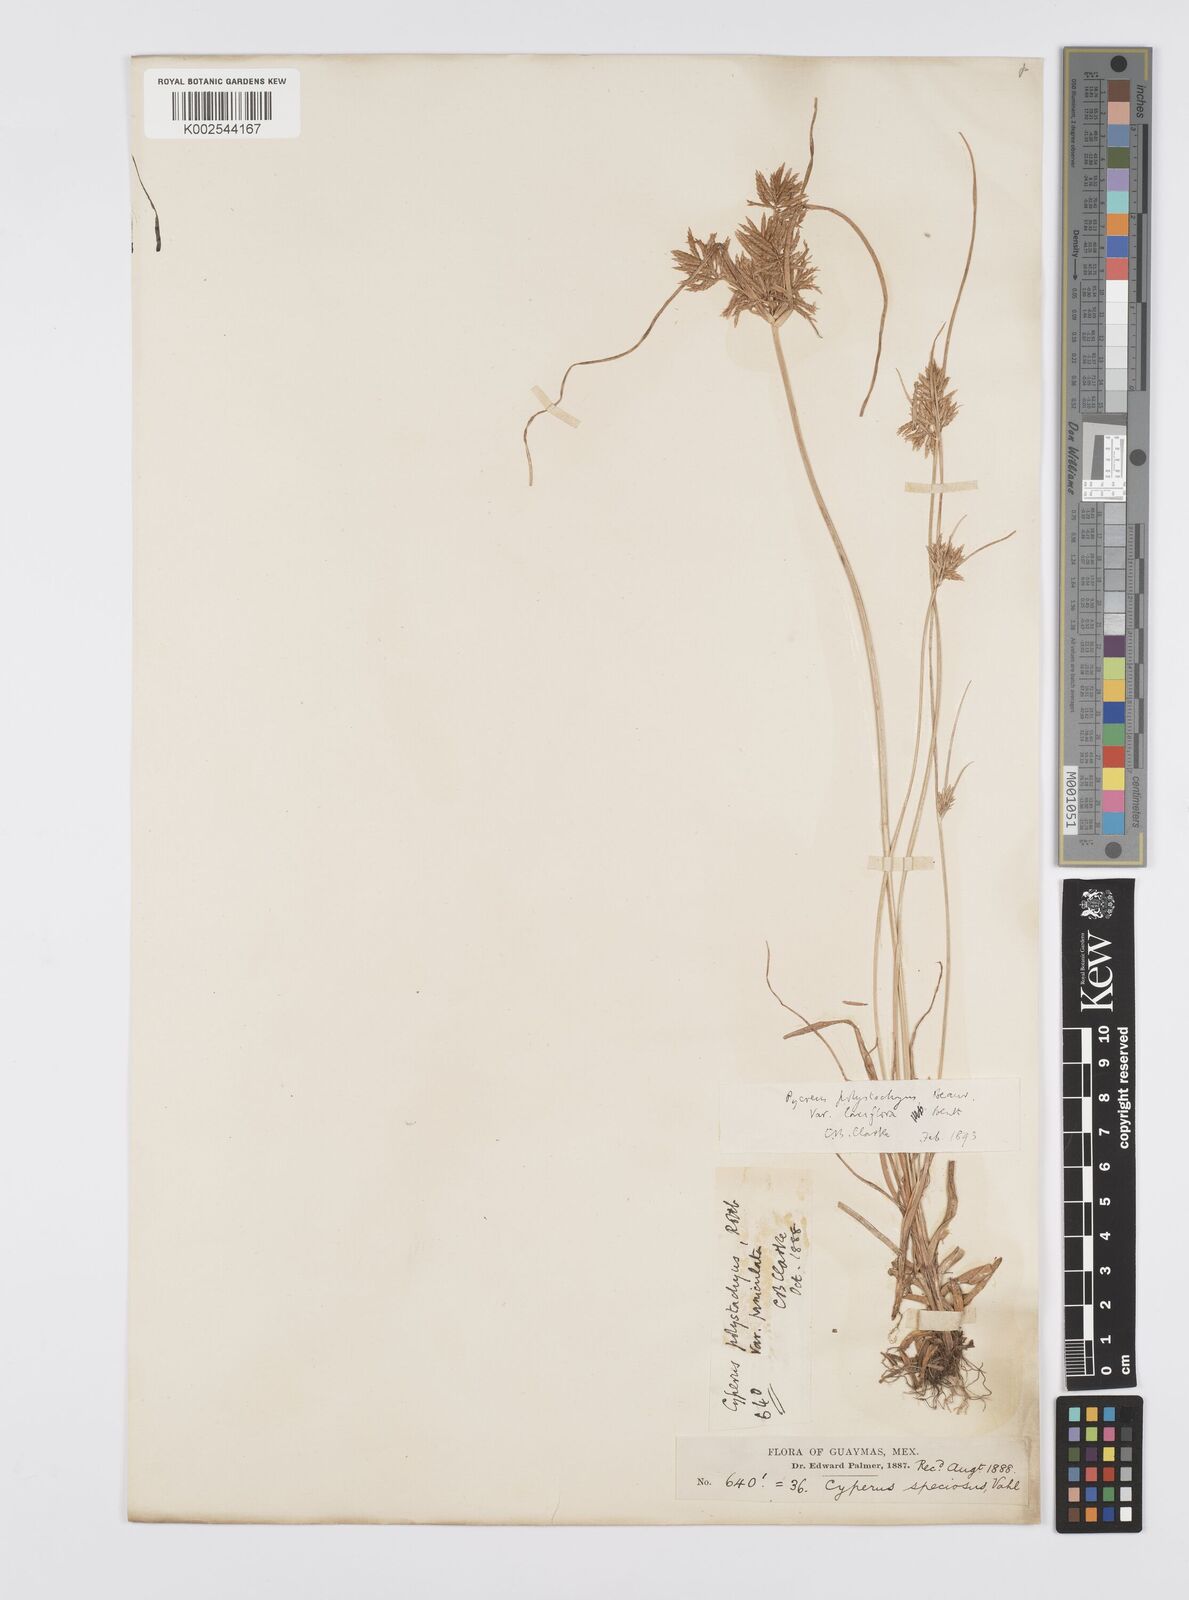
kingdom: Plantae
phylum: Tracheophyta
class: Liliopsida
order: Poales
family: Cyperaceae
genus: Cyperus
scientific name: Cyperus polystachyos
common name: Bunchy flat sedge
